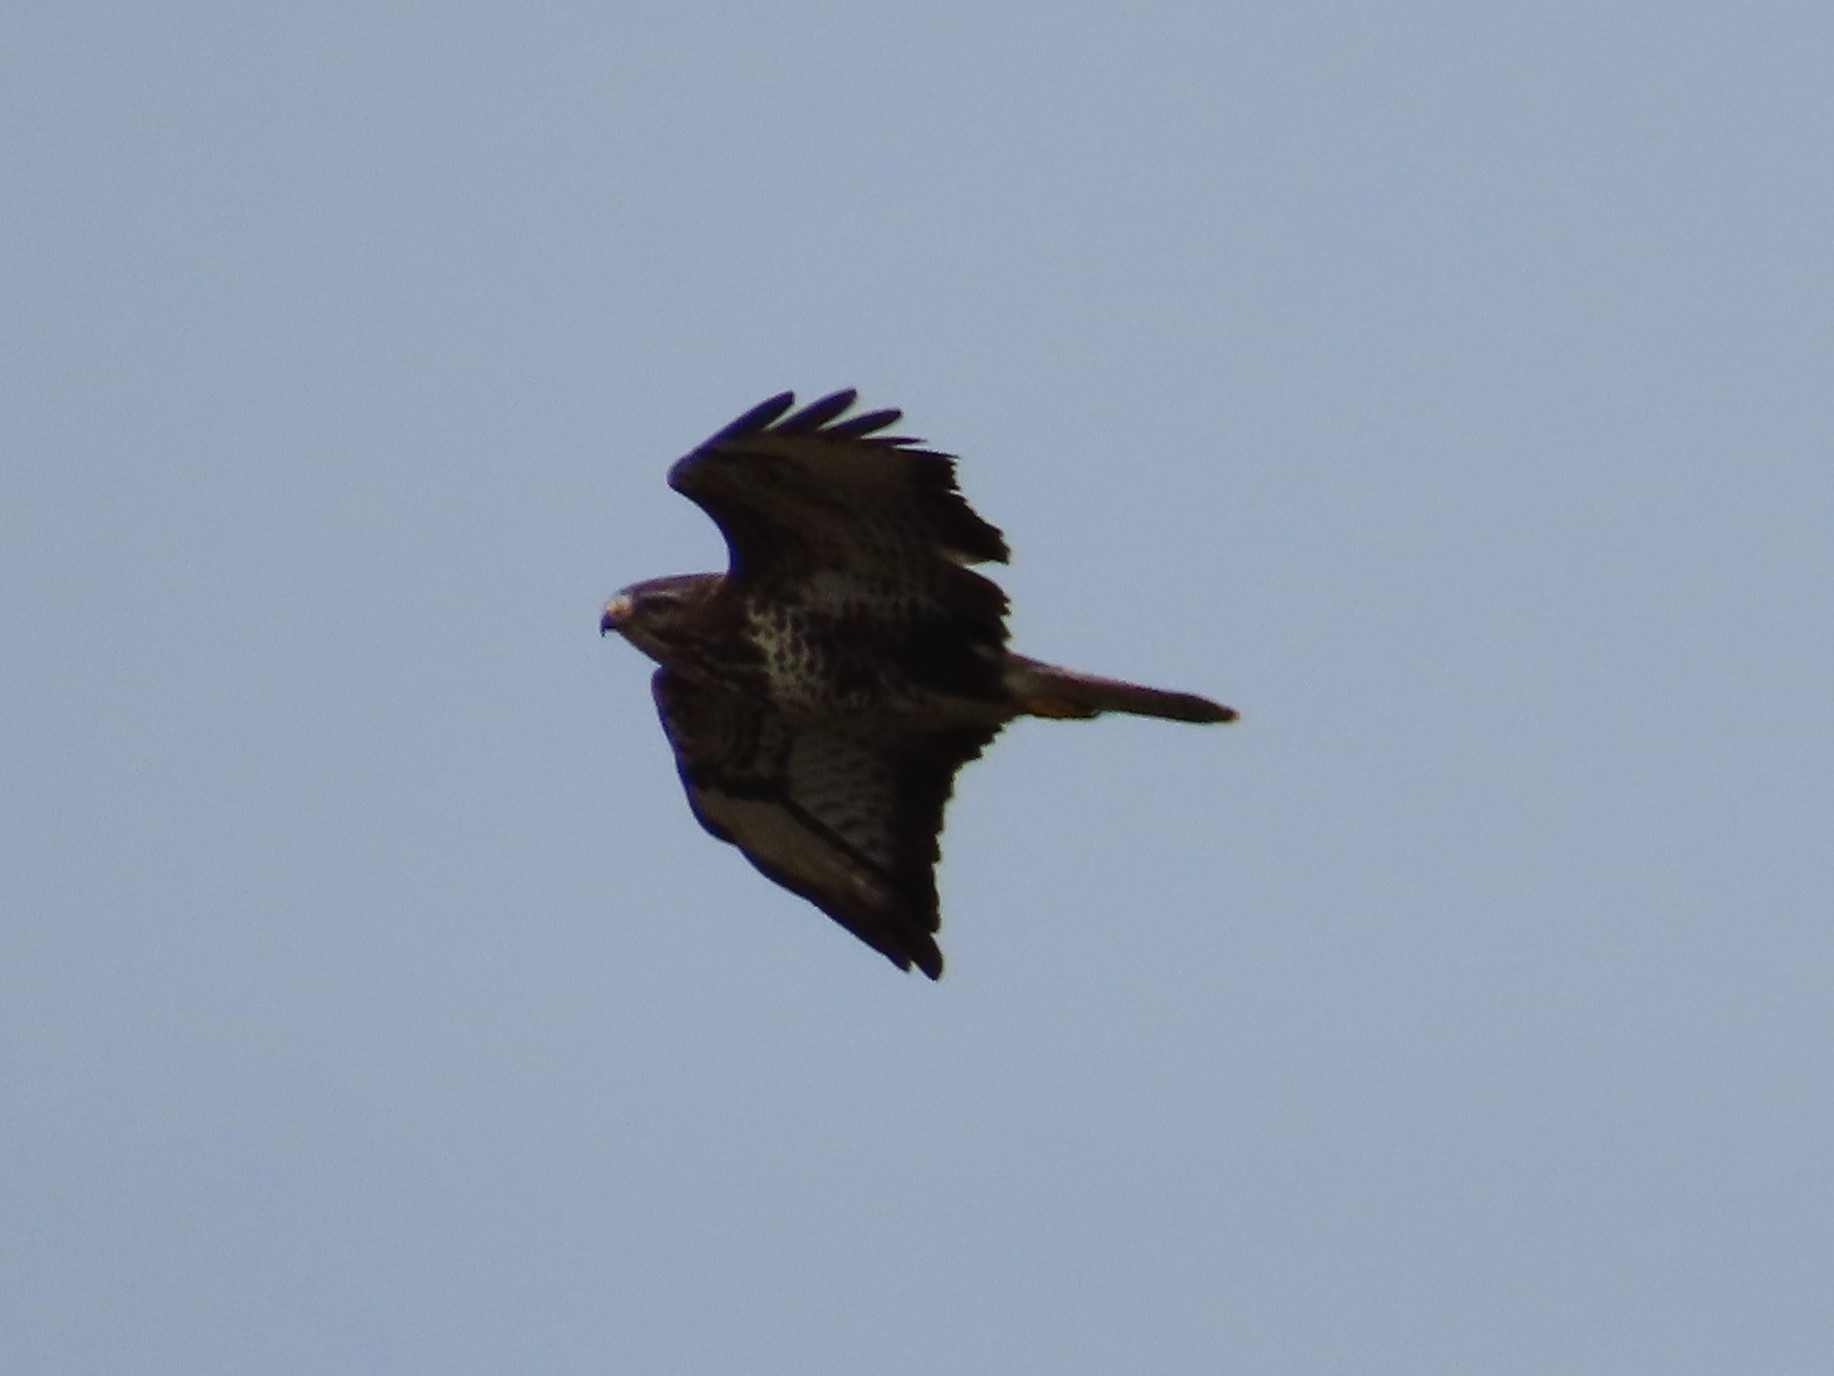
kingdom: Animalia
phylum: Chordata
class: Aves
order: Accipitriformes
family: Accipitridae
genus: Buteo
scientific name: Buteo buteo
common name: Musvåge
